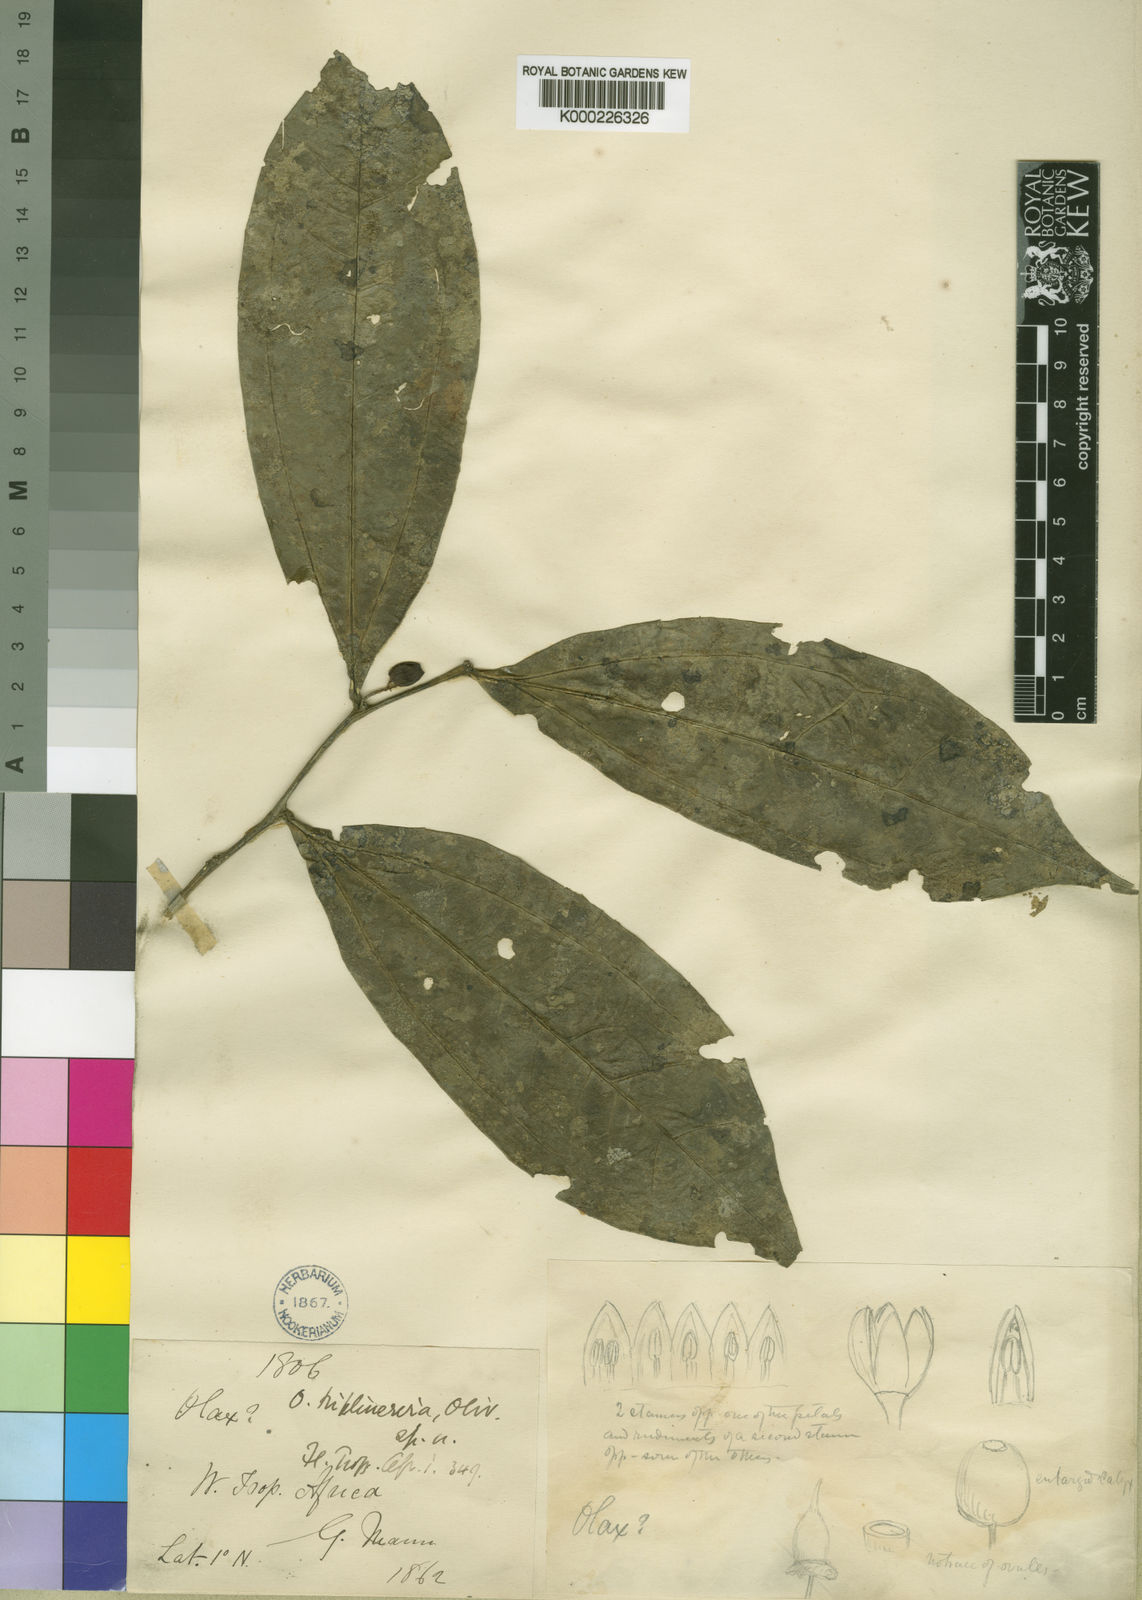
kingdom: Plantae
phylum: Tracheophyta
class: Magnoliopsida
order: Santalales
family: Olacaceae
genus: Olax
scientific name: Olax triplinervia
